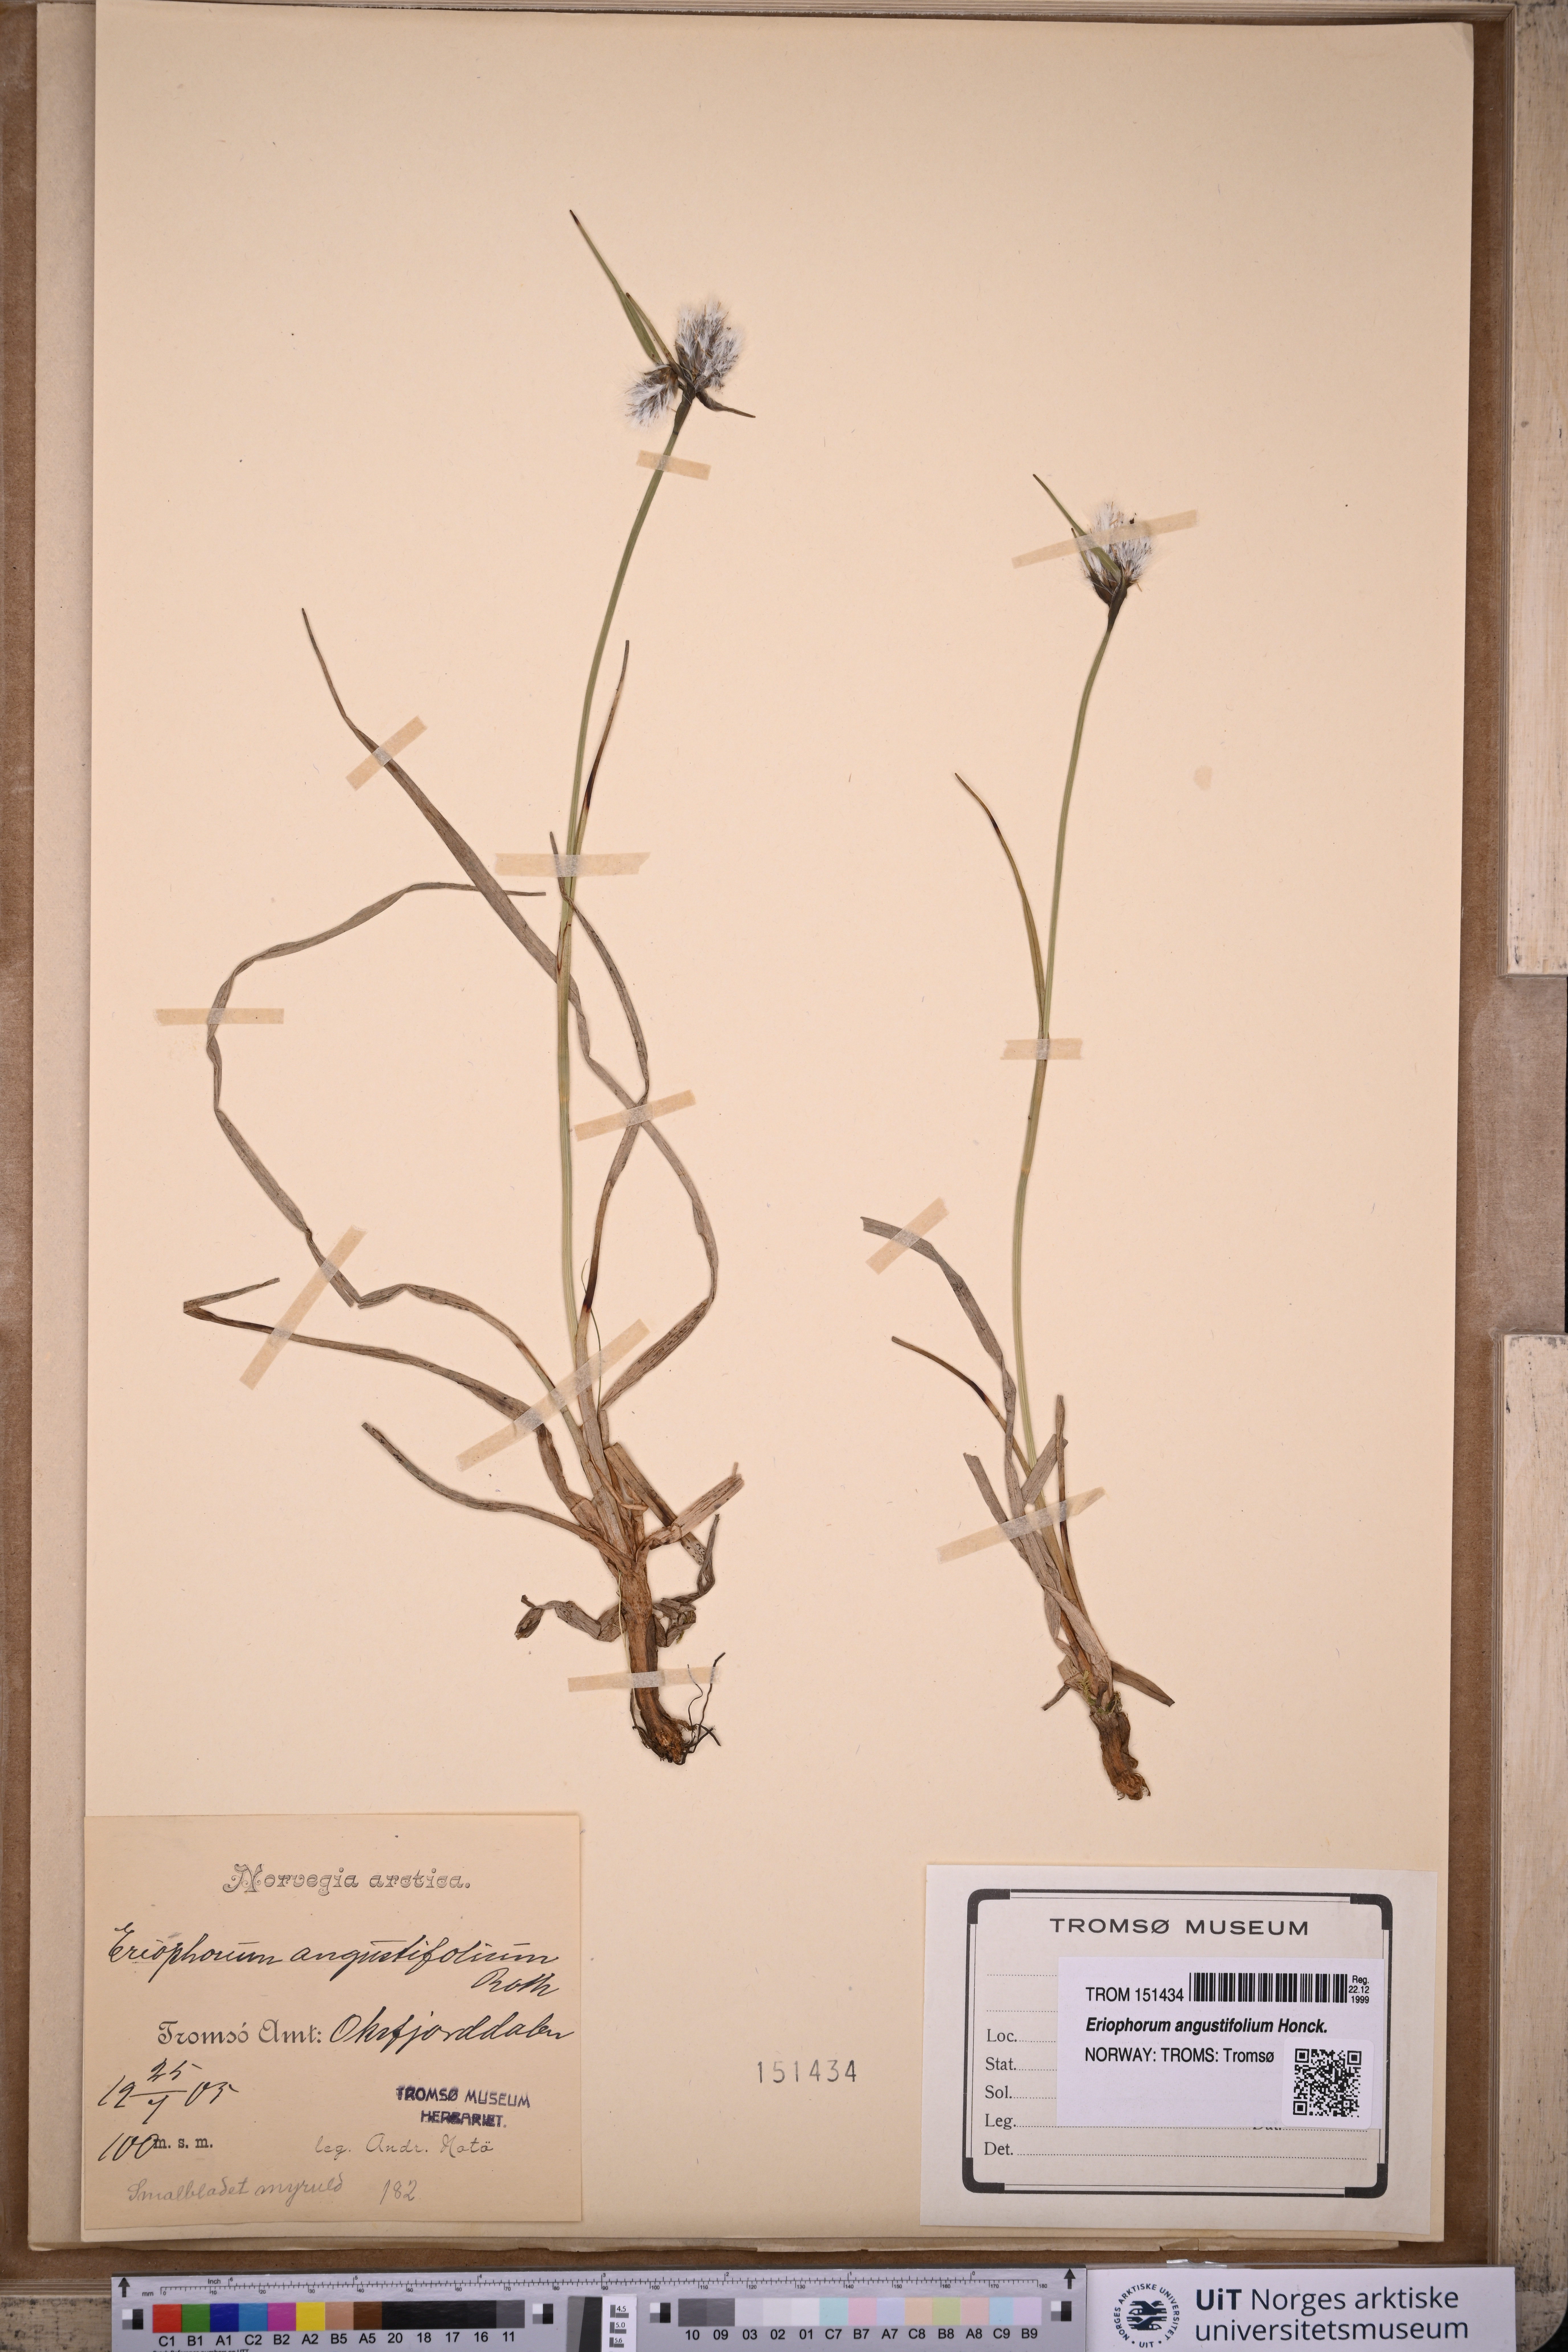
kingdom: Plantae
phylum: Tracheophyta
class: Liliopsida
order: Poales
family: Cyperaceae
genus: Eriophorum
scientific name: Eriophorum angustifolium
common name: Common cottongrass
